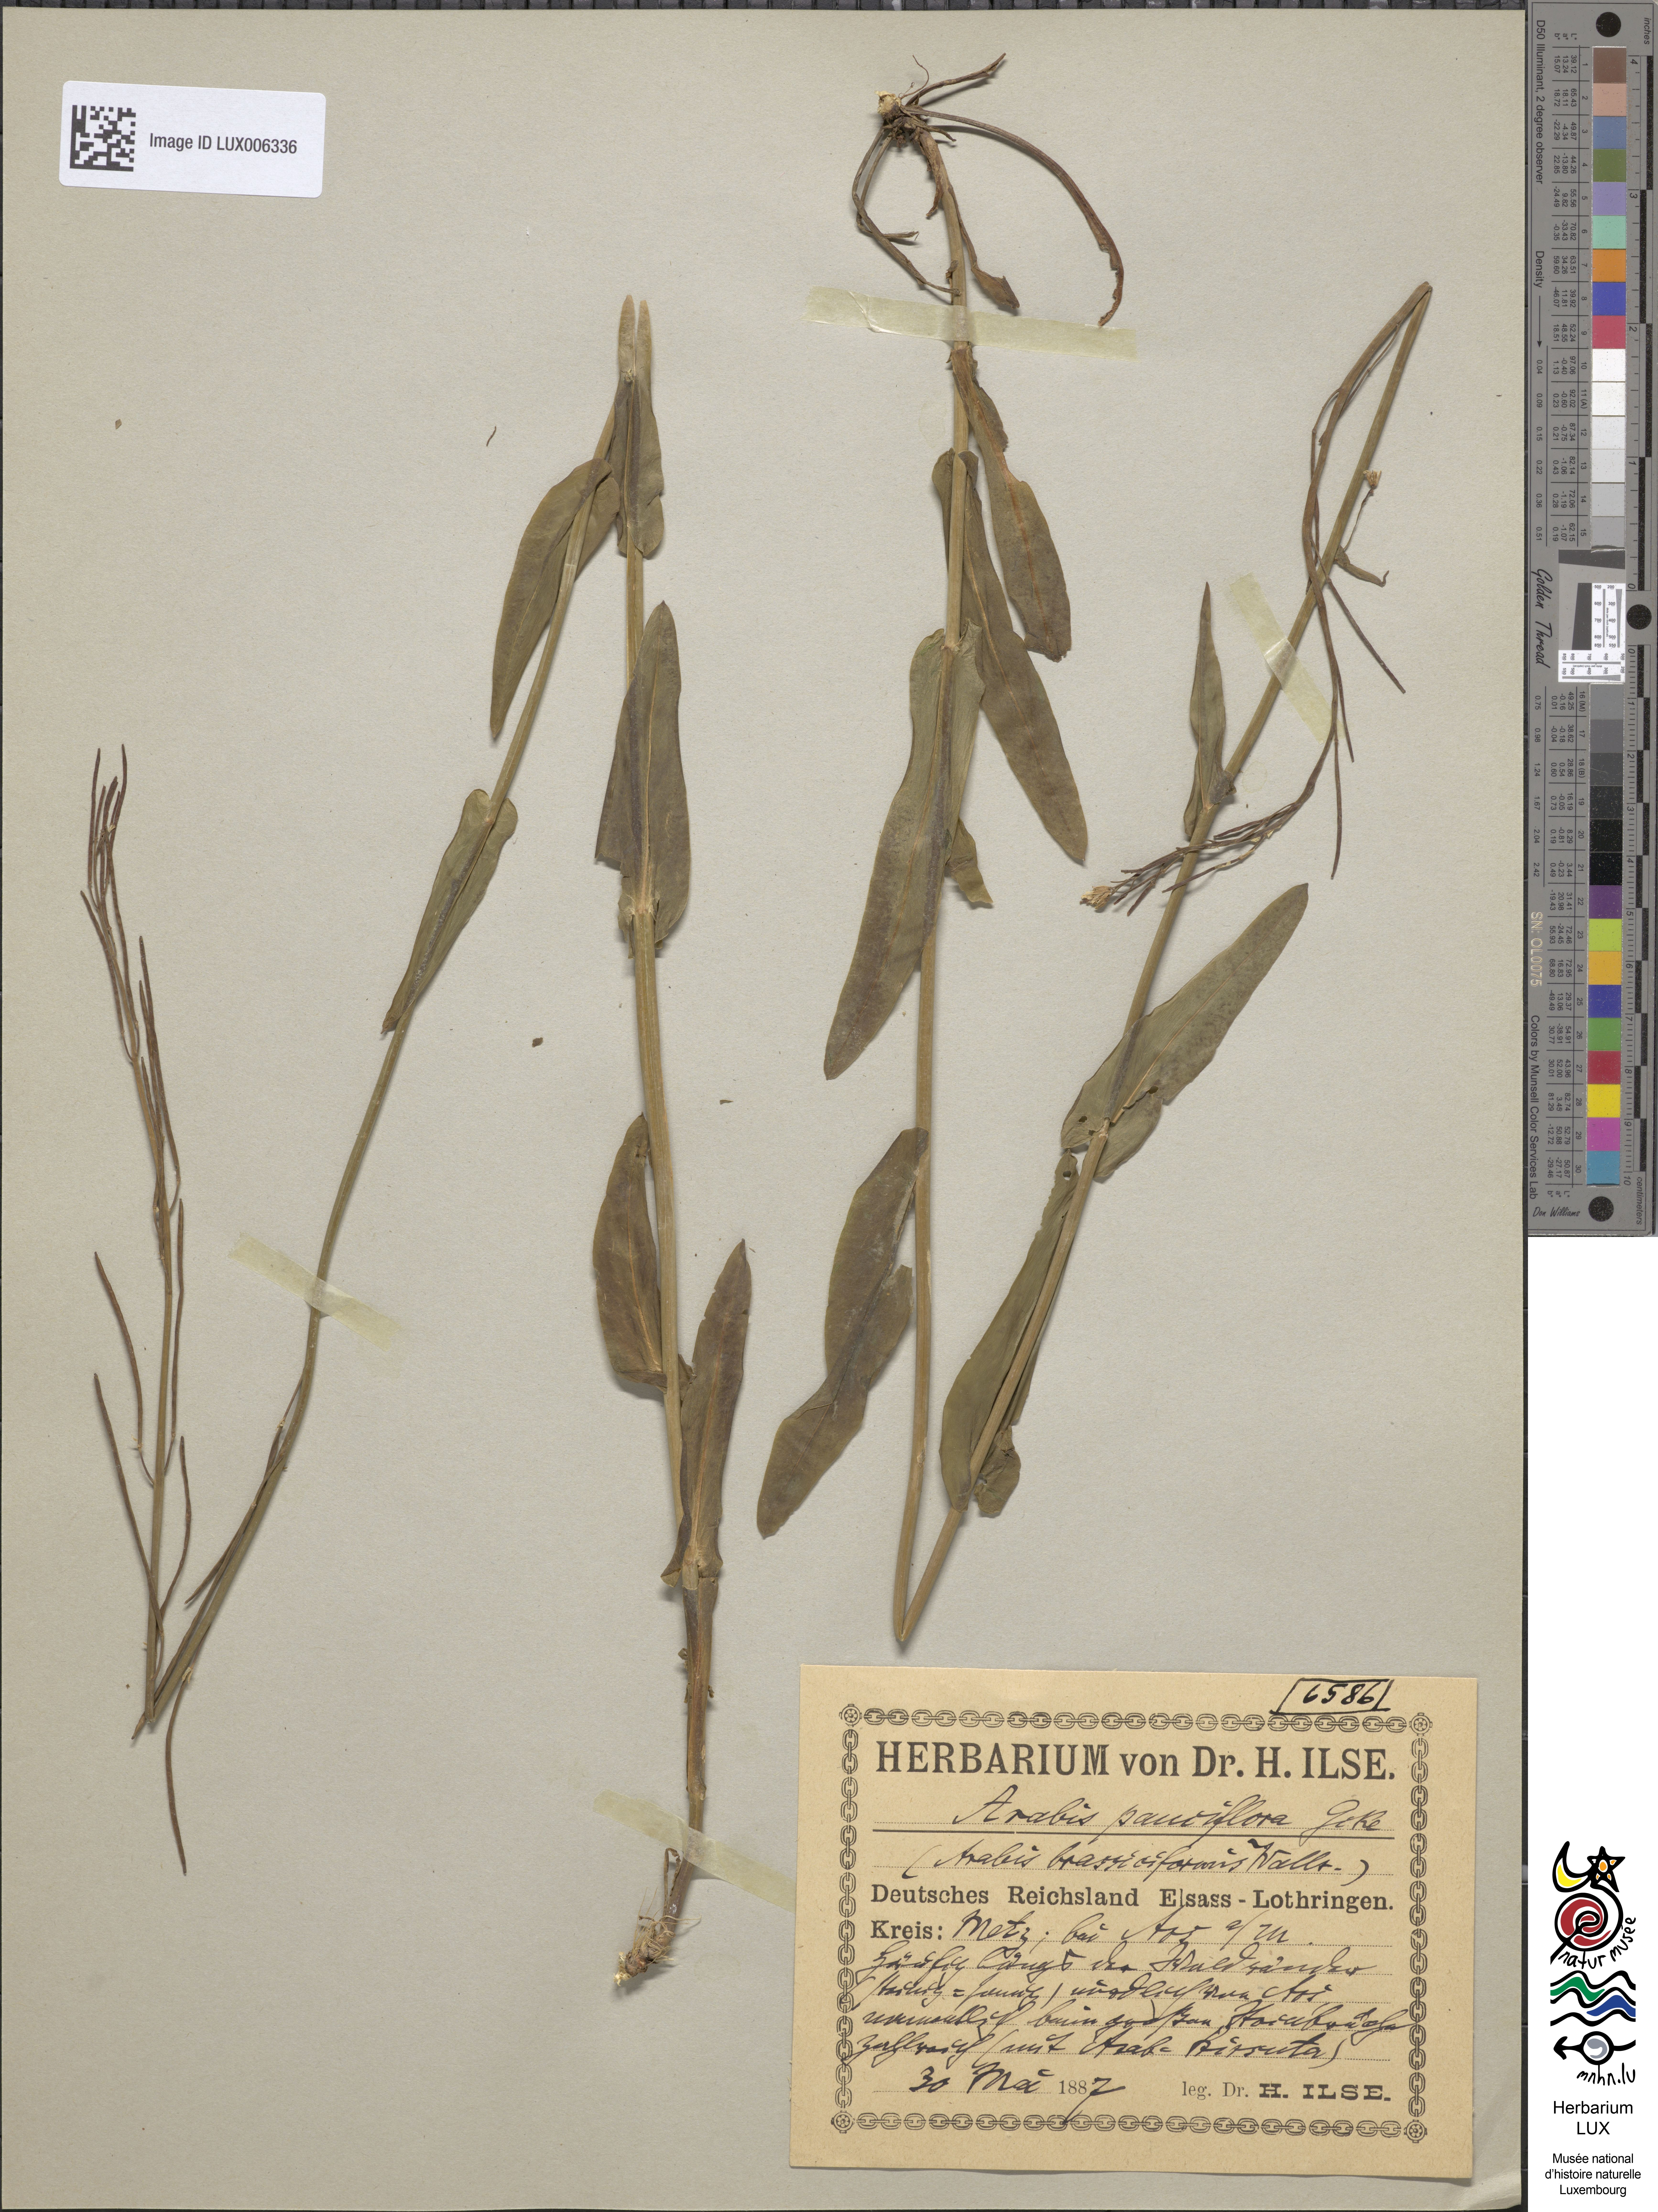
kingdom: Plantae
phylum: Tracheophyta
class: Magnoliopsida
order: Brassicales
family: Brassicaceae
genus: Fourraea
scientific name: Fourraea alpina
